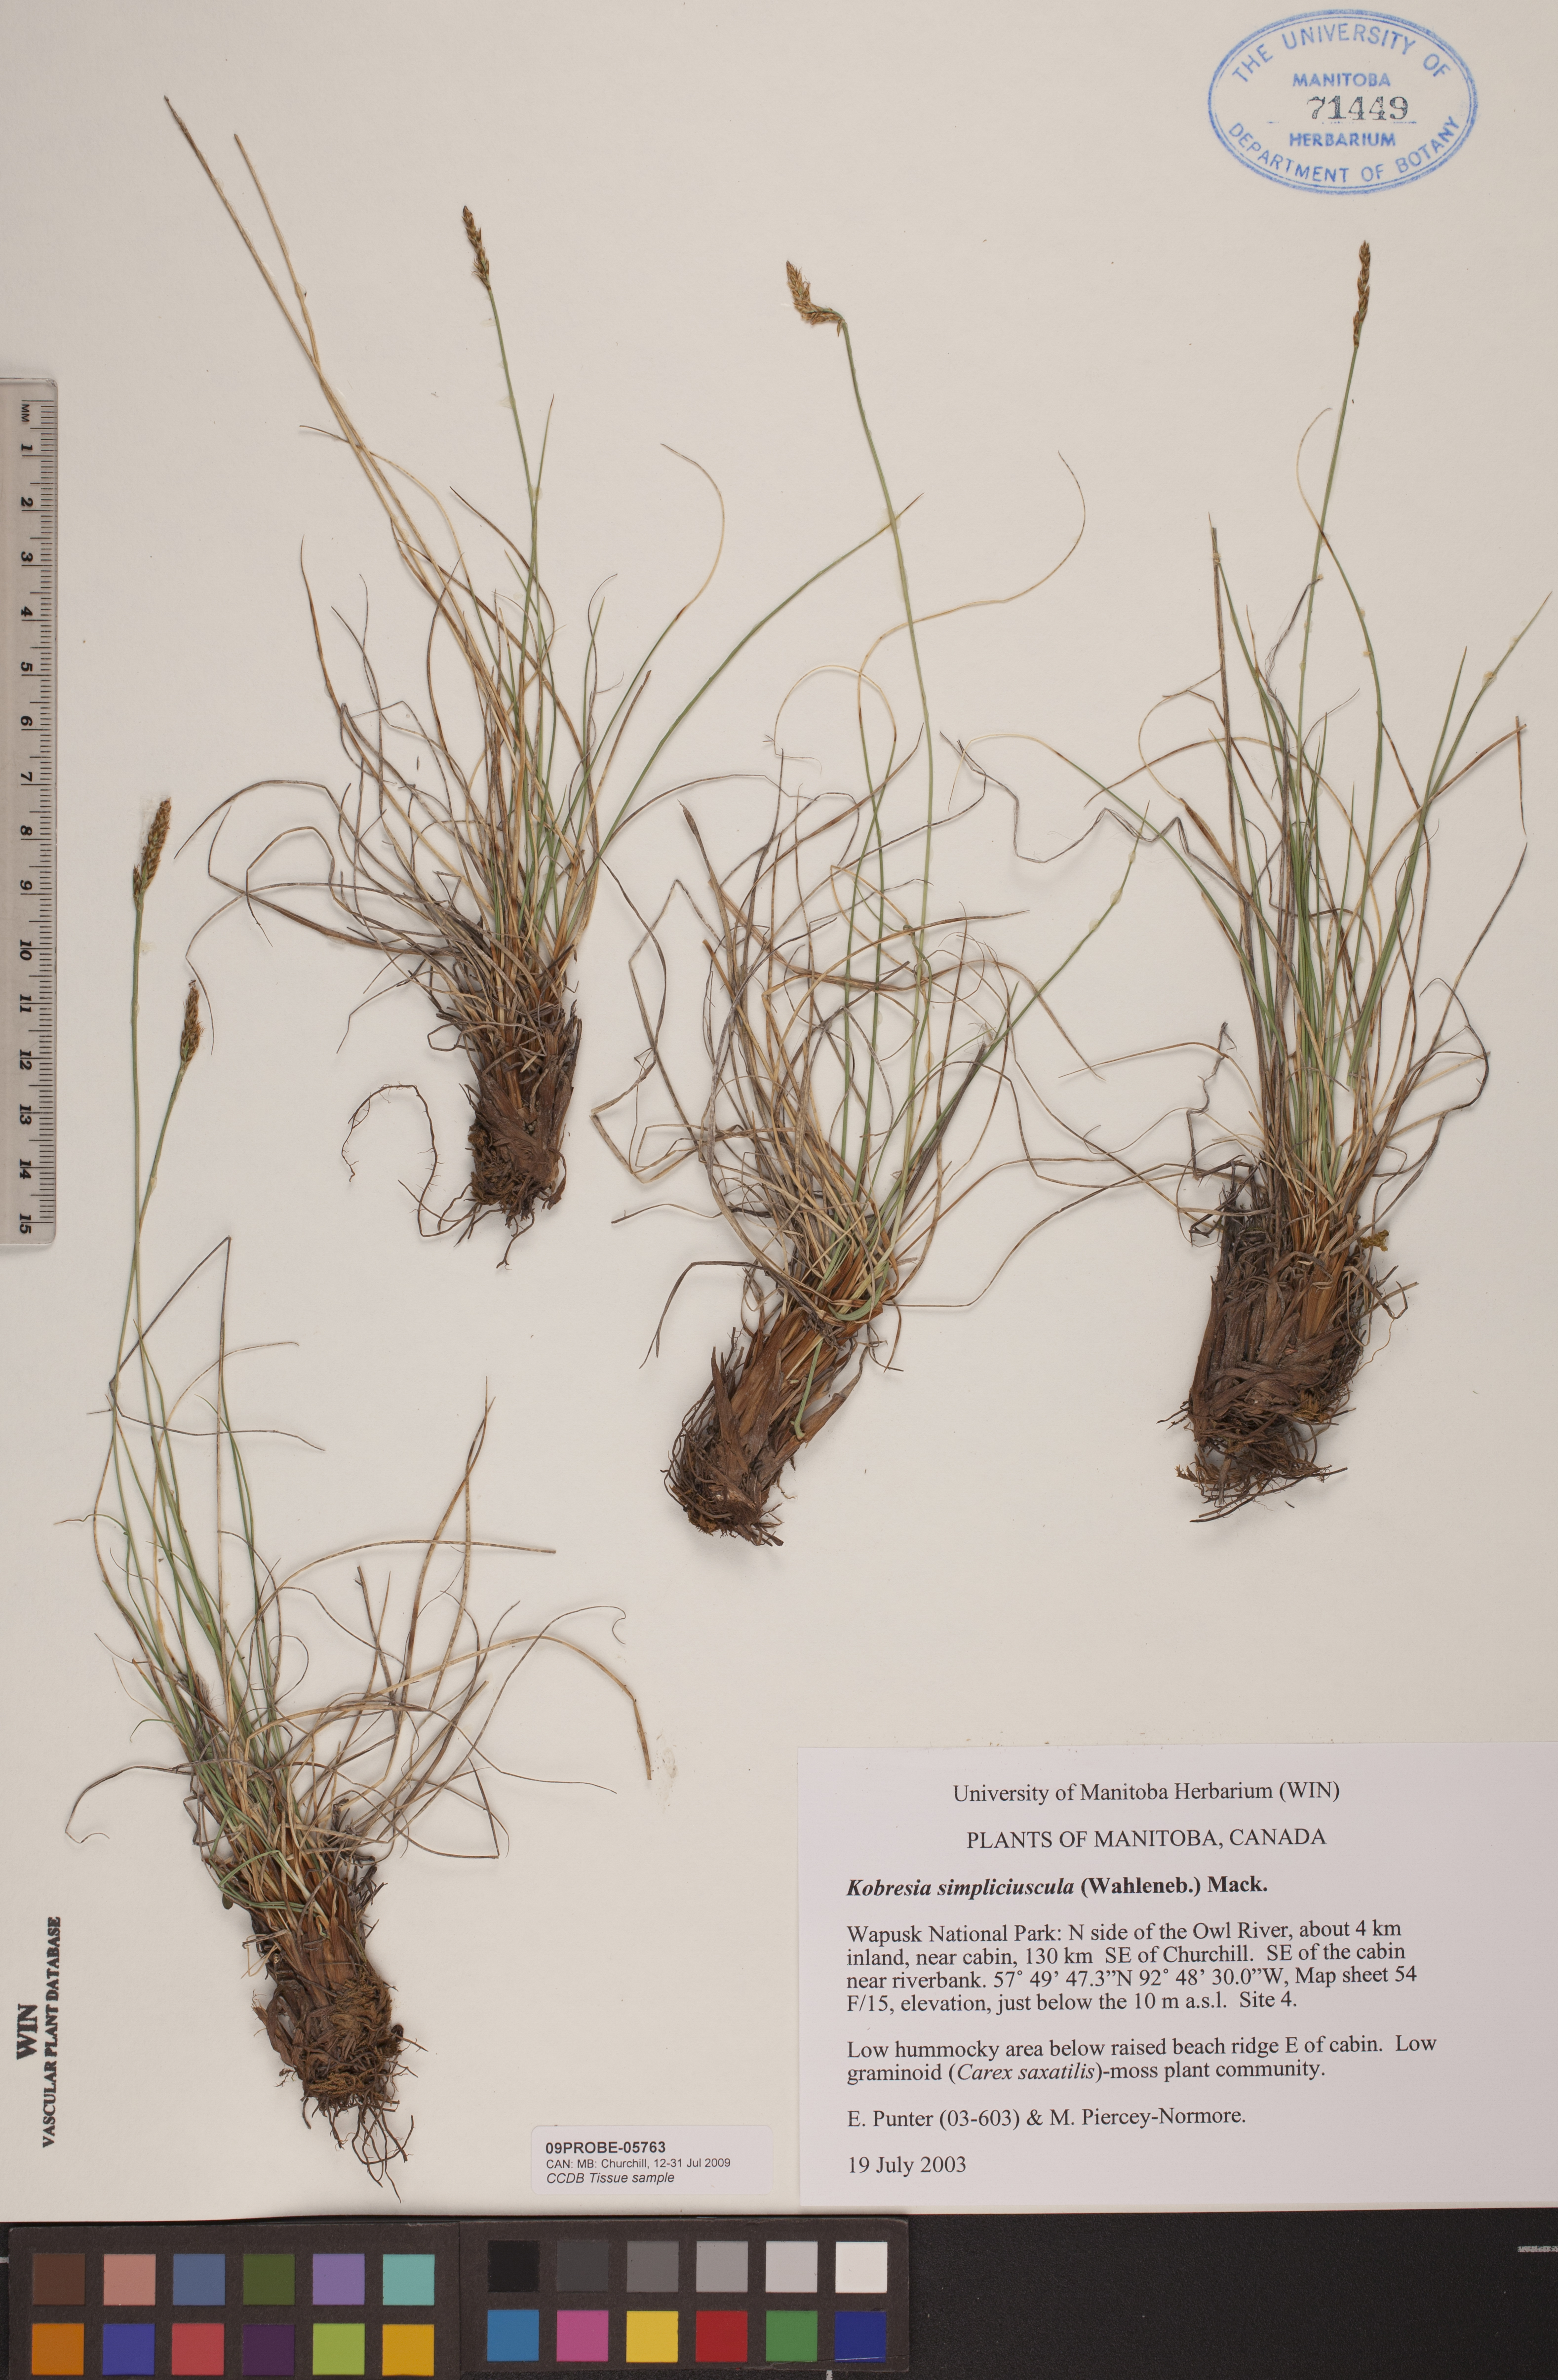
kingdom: Plantae
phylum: Tracheophyta
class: Liliopsida
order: Poales
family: Cyperaceae
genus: Carex
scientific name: Carex simpliciuscula
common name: Simple bog sedge
